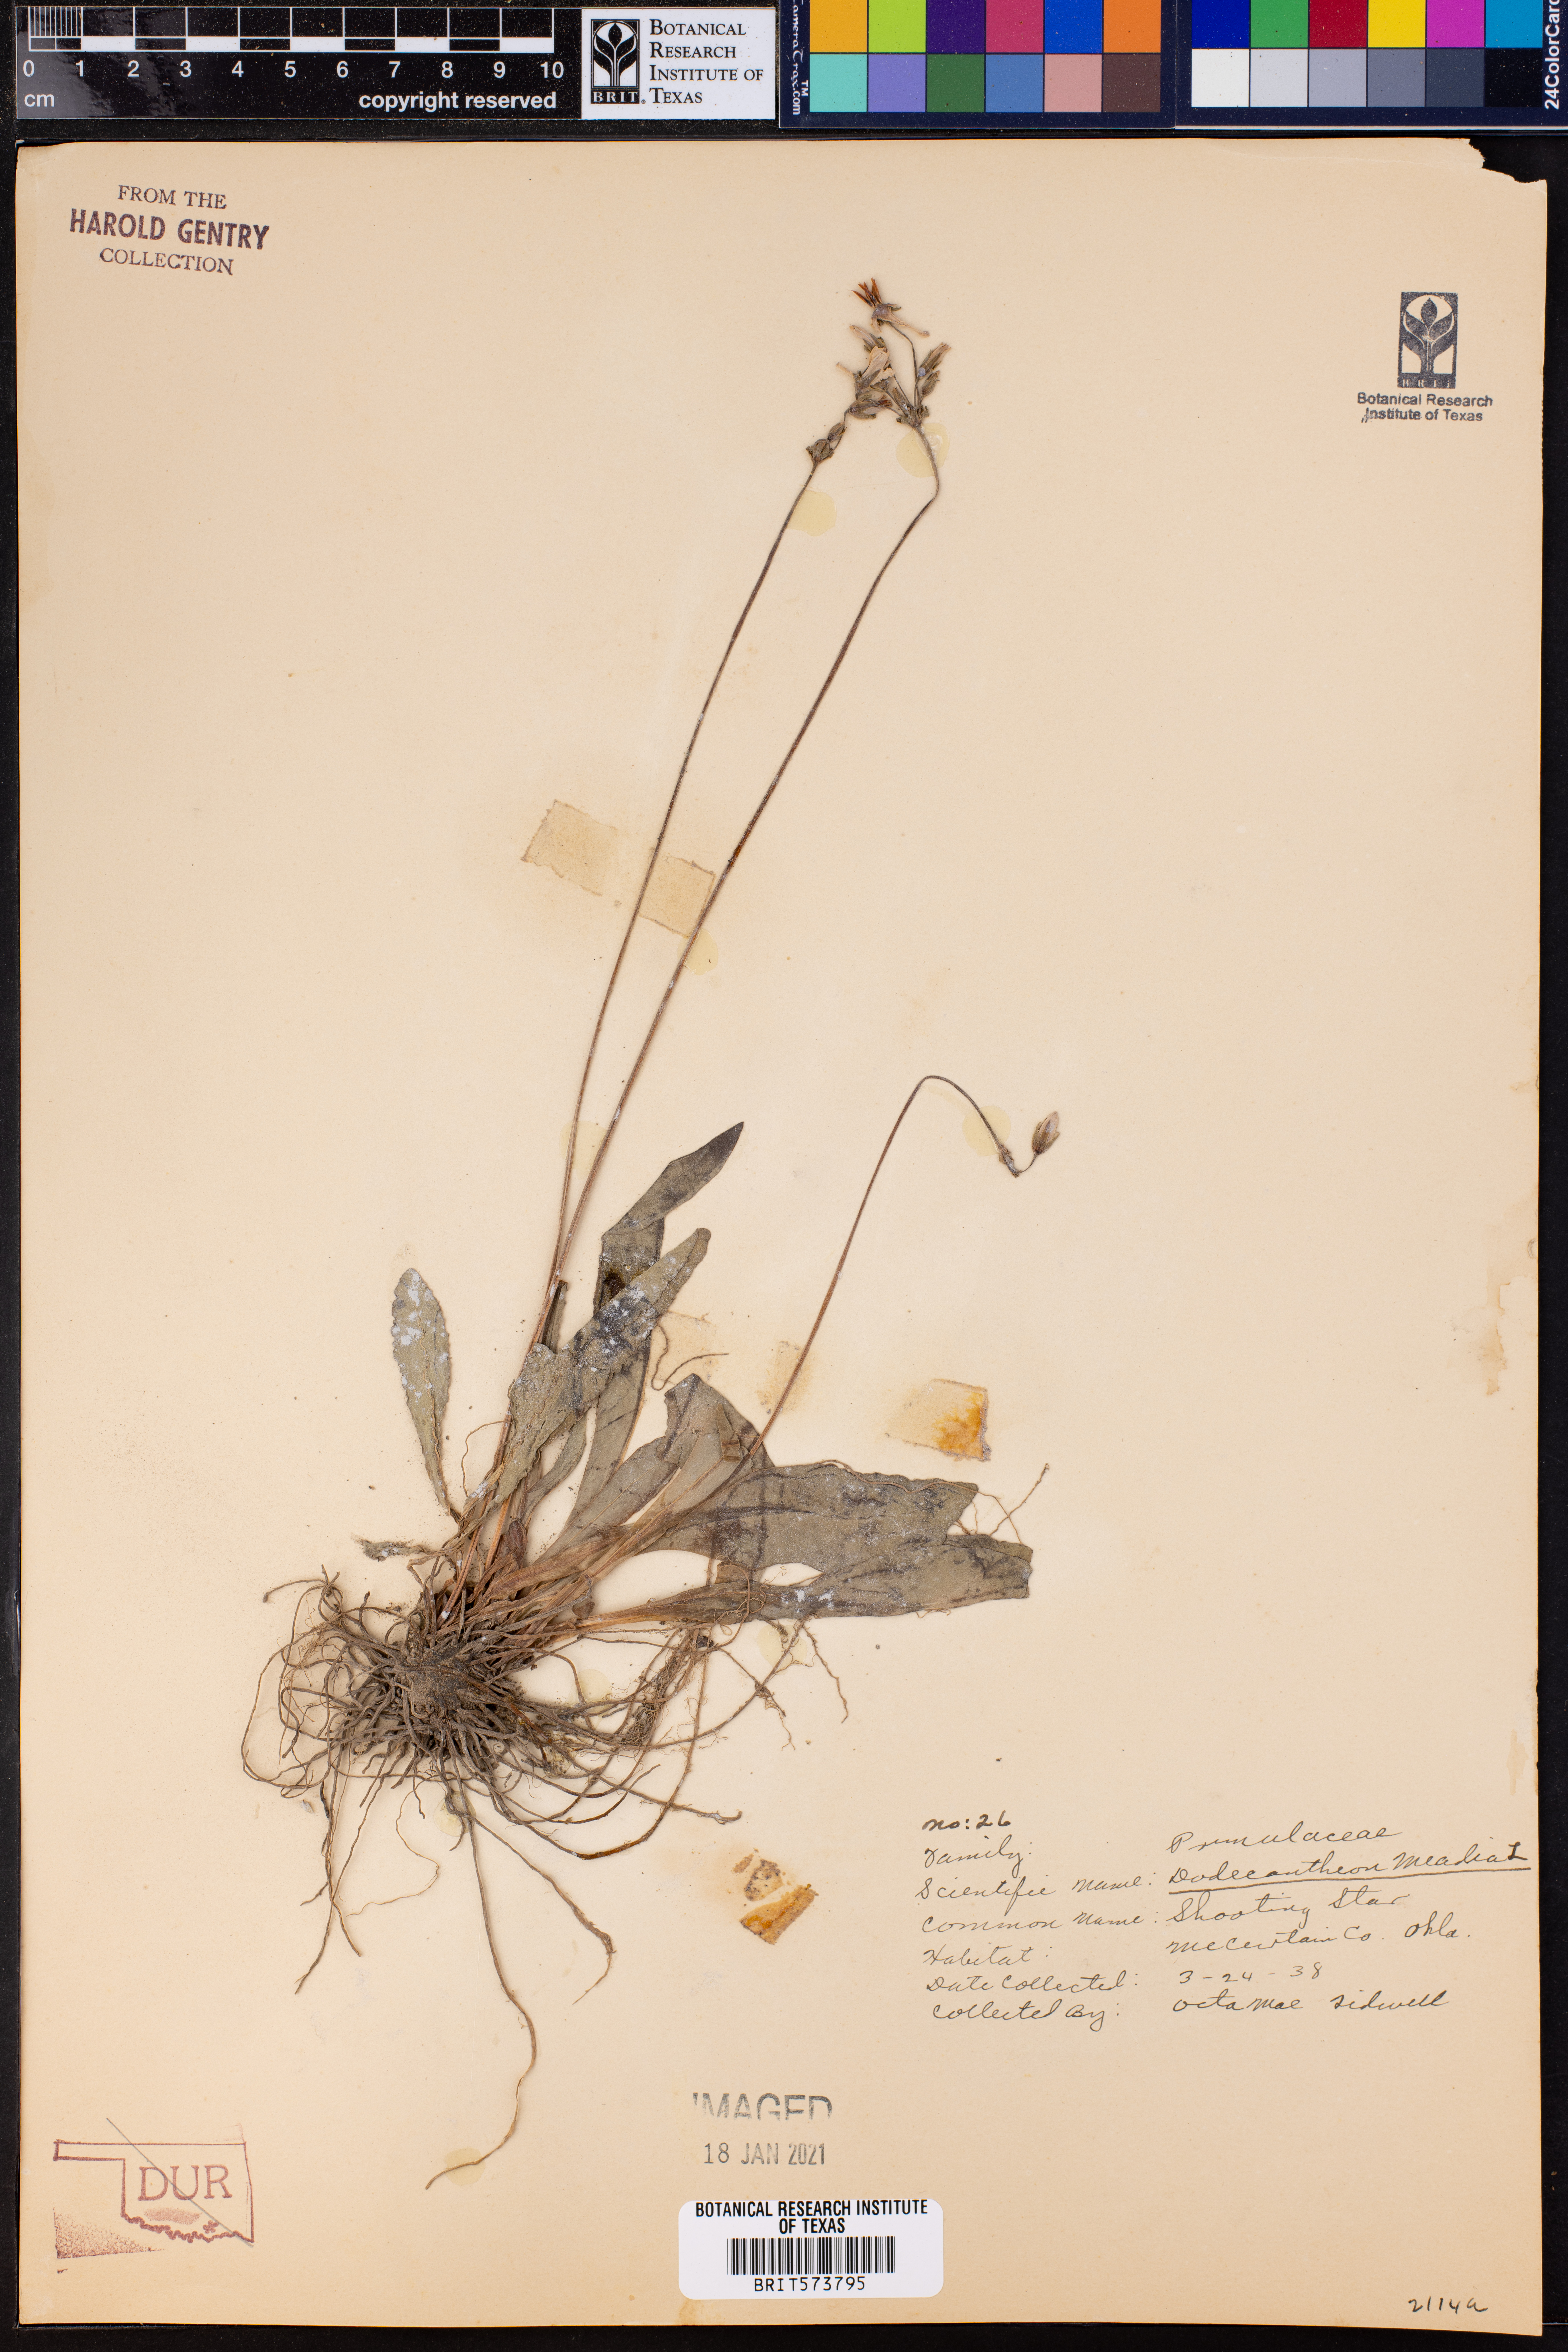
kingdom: Plantae
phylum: Tracheophyta
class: Magnoliopsida
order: Ericales
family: Primulaceae
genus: Dodecatheon
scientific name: Dodecatheon meadia
